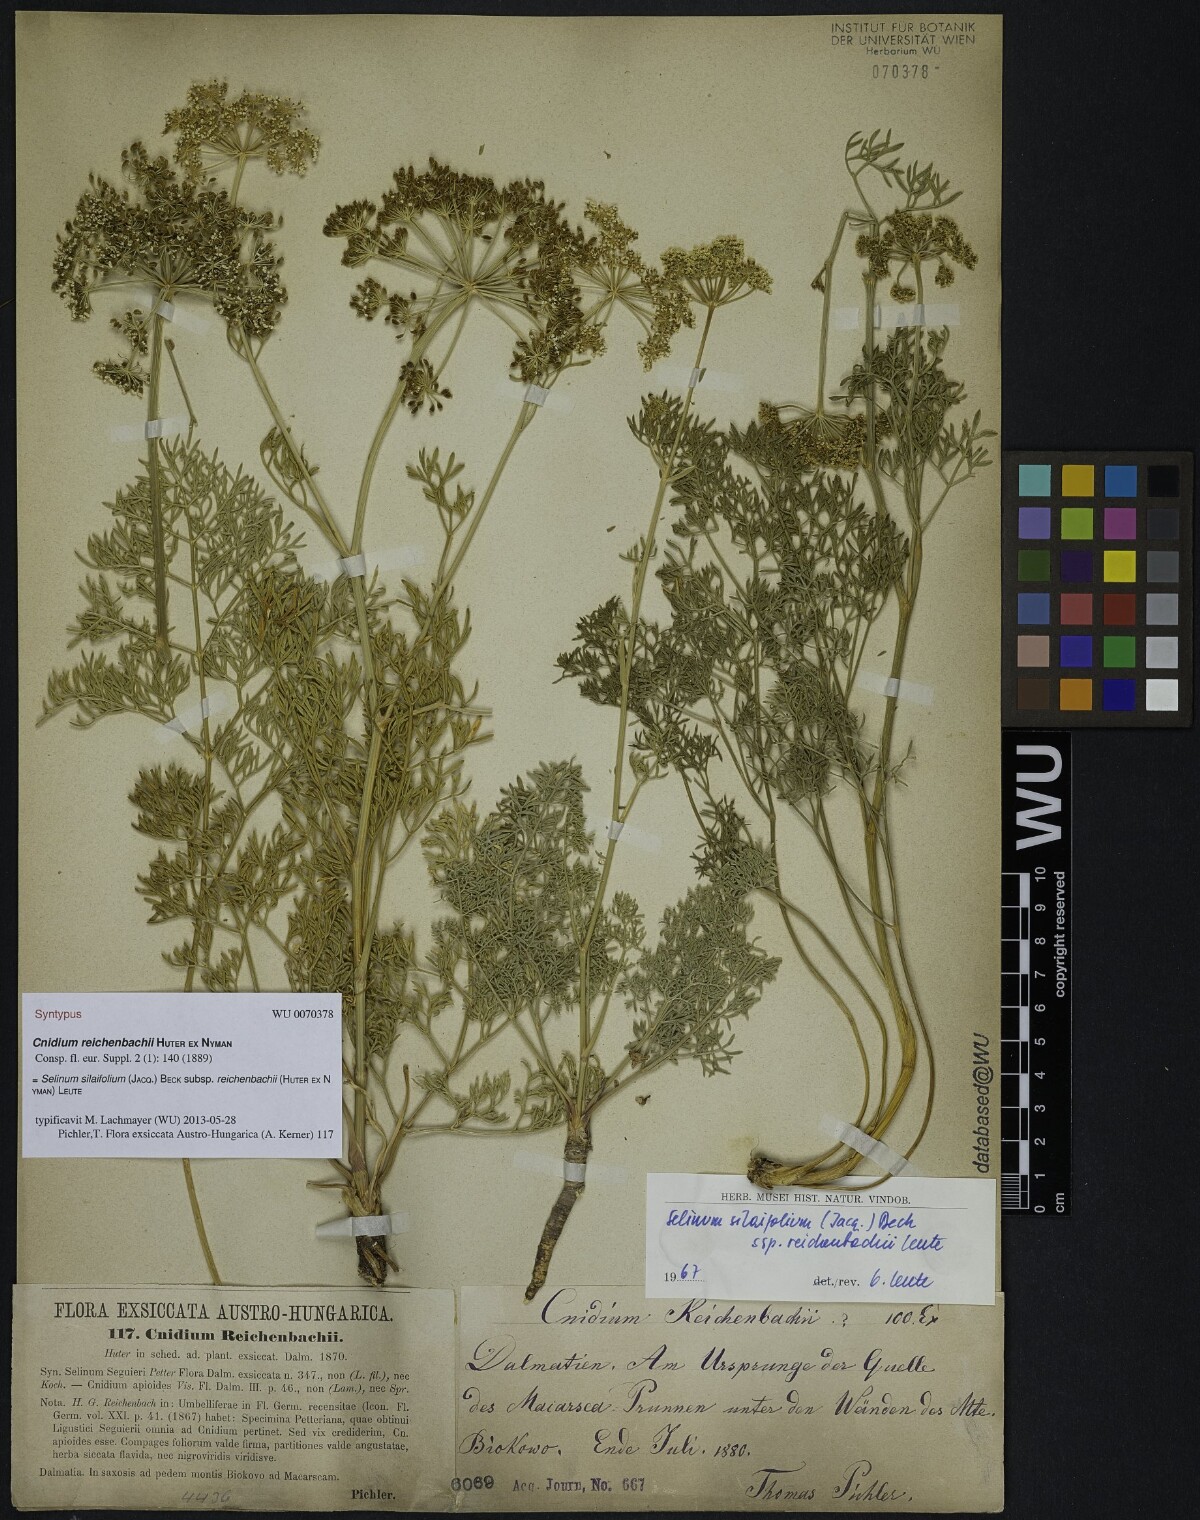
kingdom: Plantae
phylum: Tracheophyta
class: Magnoliopsida
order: Apiales
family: Apiaceae
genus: Cnidium
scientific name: Cnidium reichenbachii
